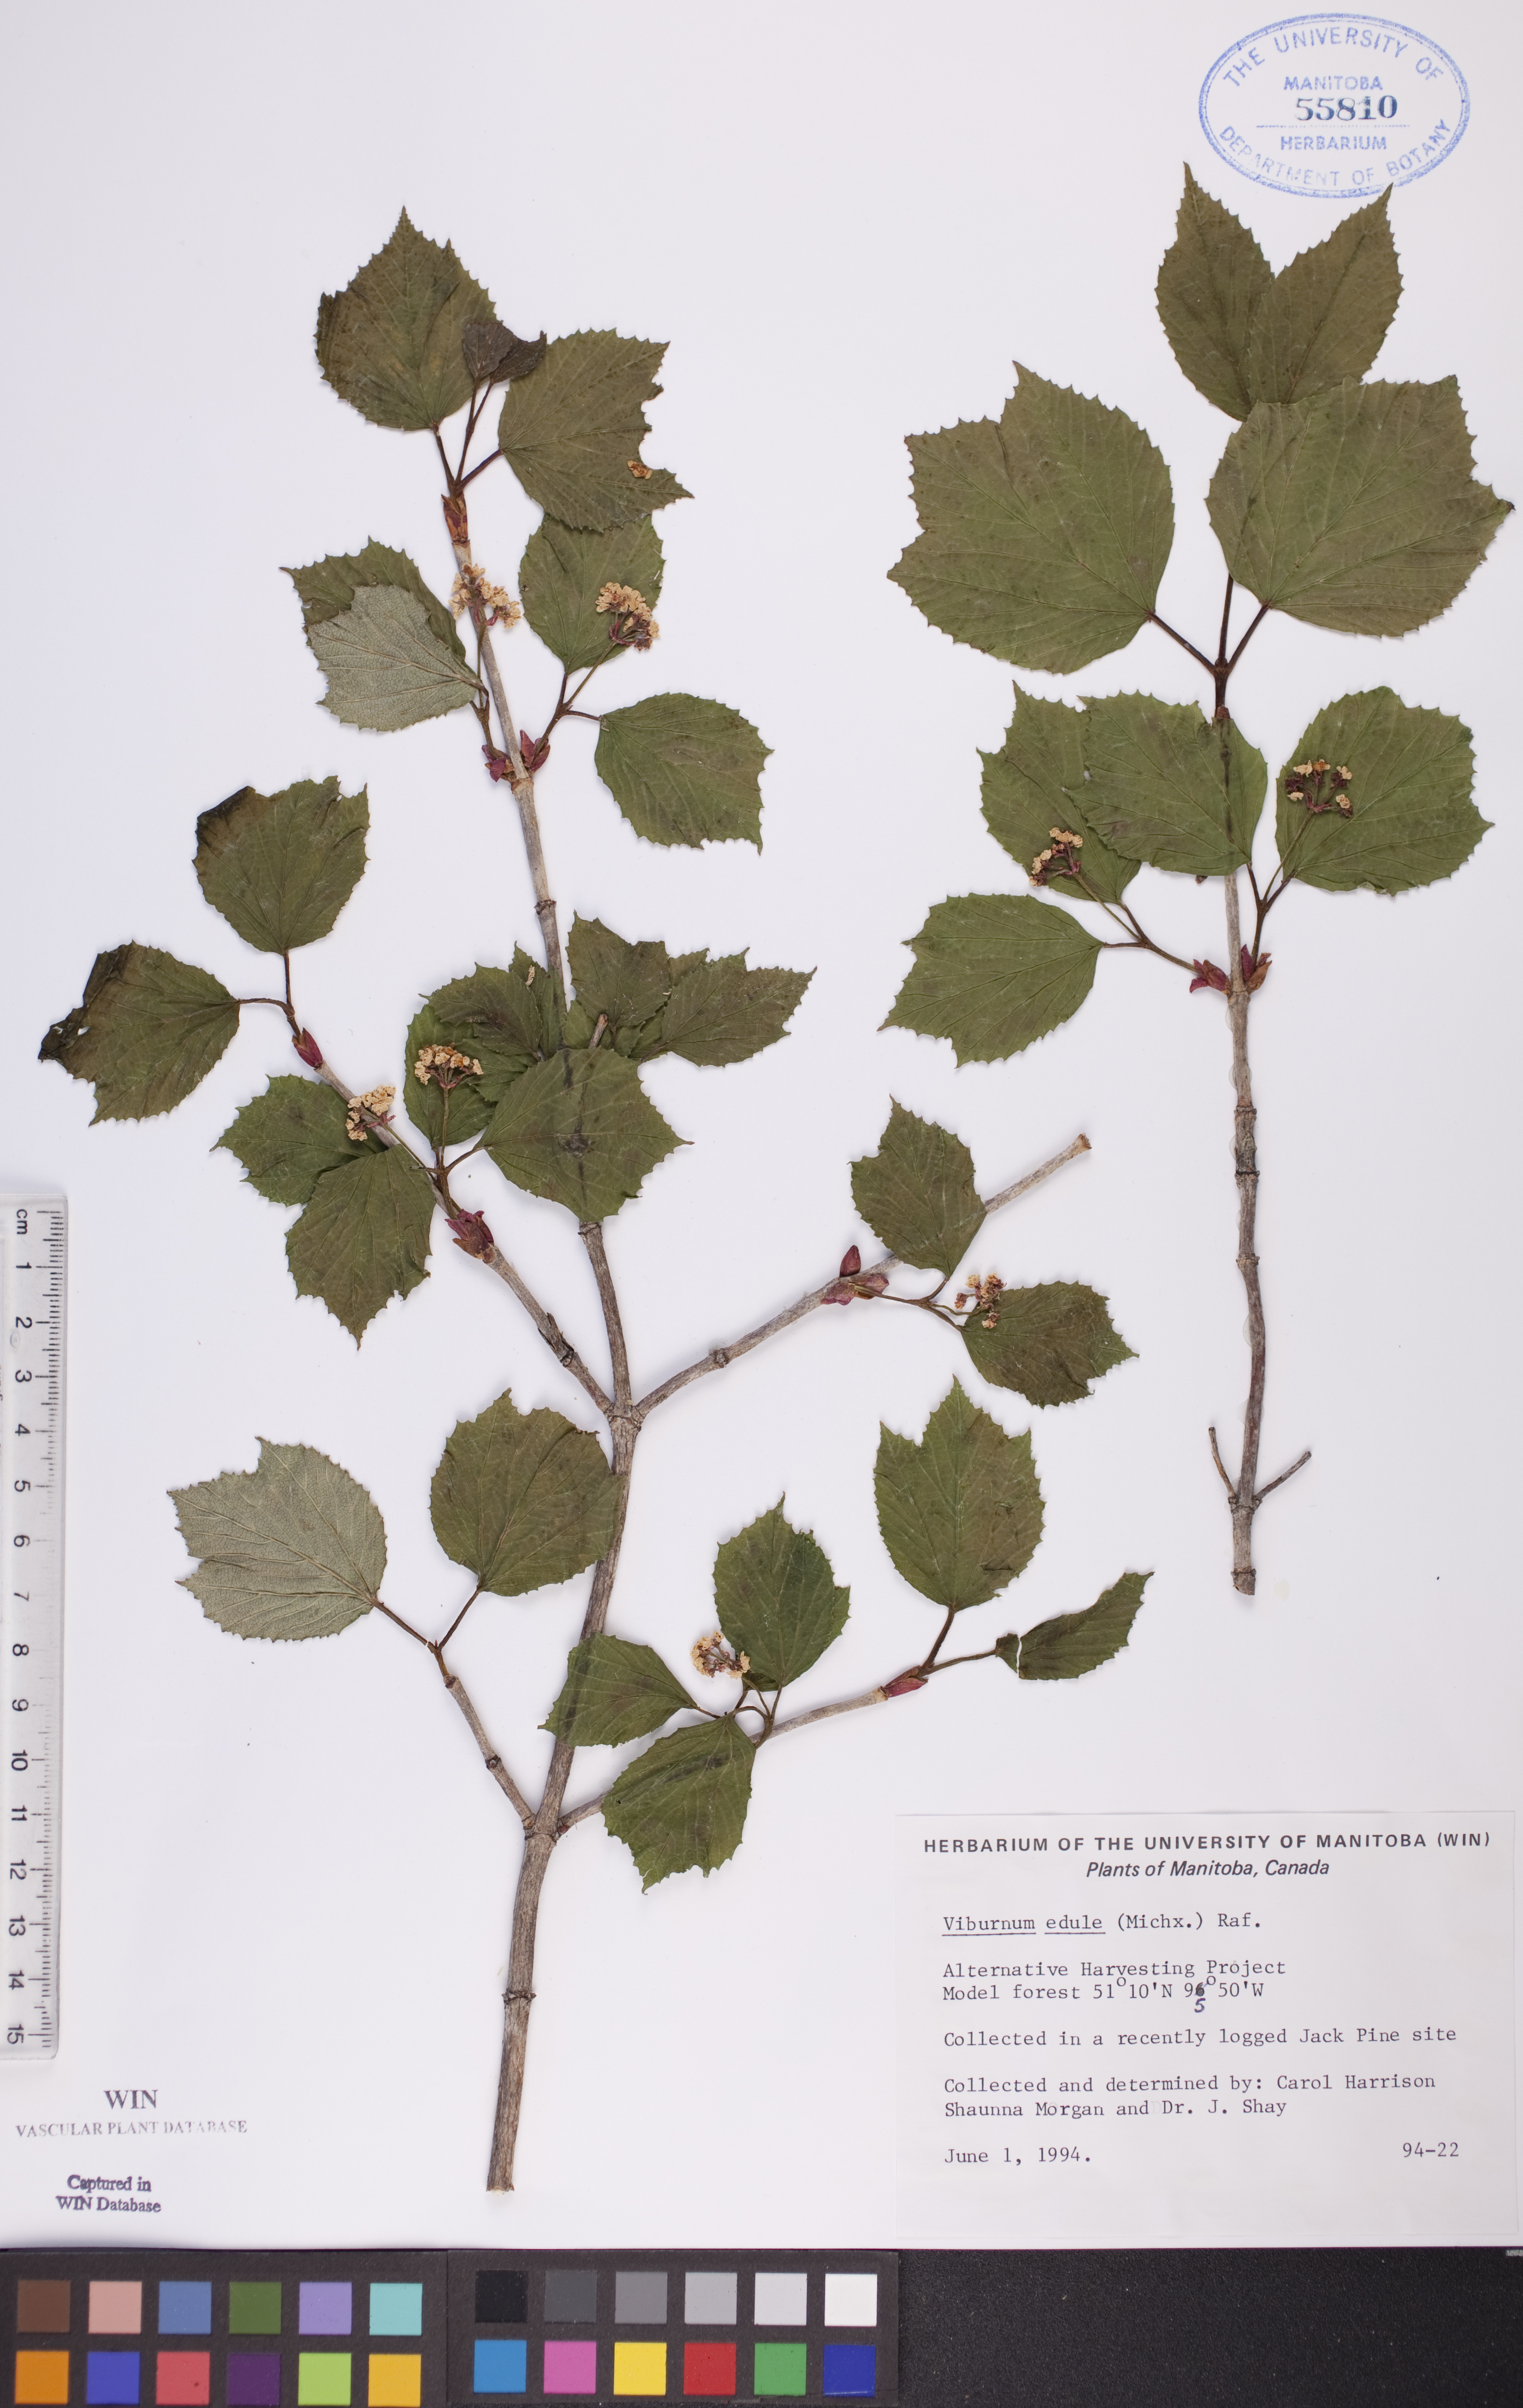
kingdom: Plantae
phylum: Tracheophyta
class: Magnoliopsida
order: Dipsacales
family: Viburnaceae
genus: Viburnum
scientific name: Viburnum edule
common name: Mooseberry
